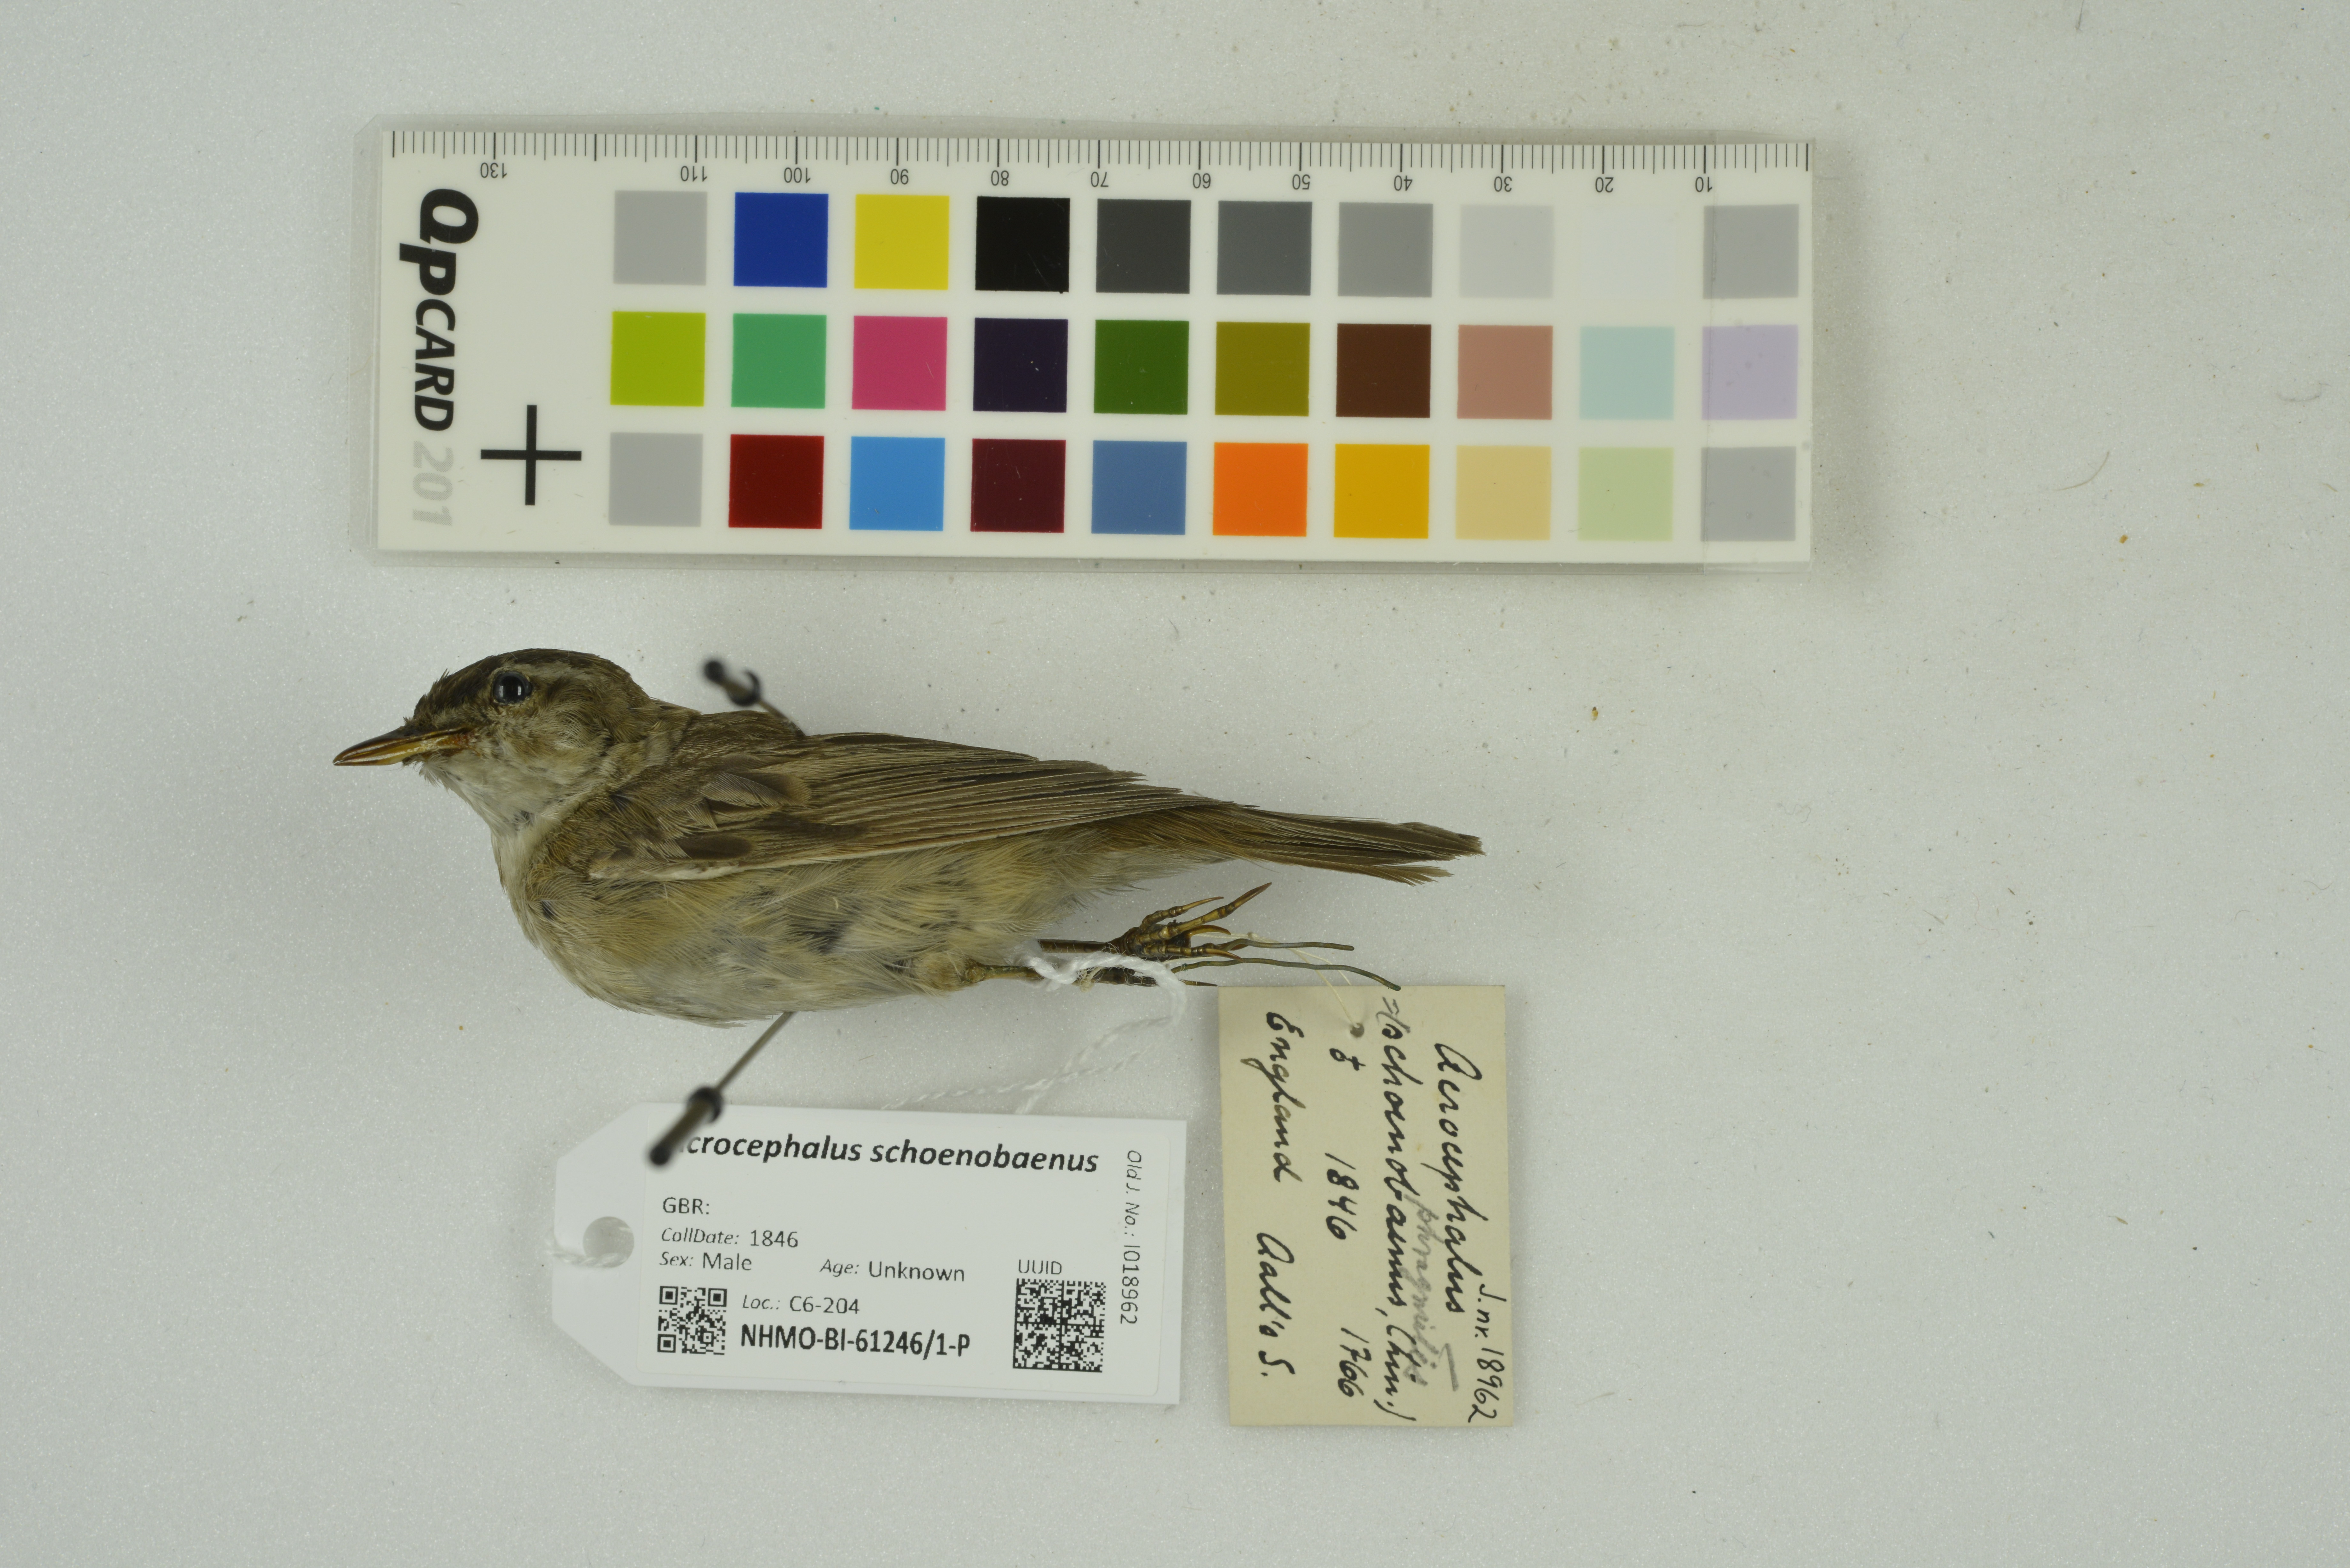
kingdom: Animalia
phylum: Chordata
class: Aves
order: Passeriformes
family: Acrocephalidae
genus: Acrocephalus
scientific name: Acrocephalus schoenobaenus
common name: Sedge warbler
